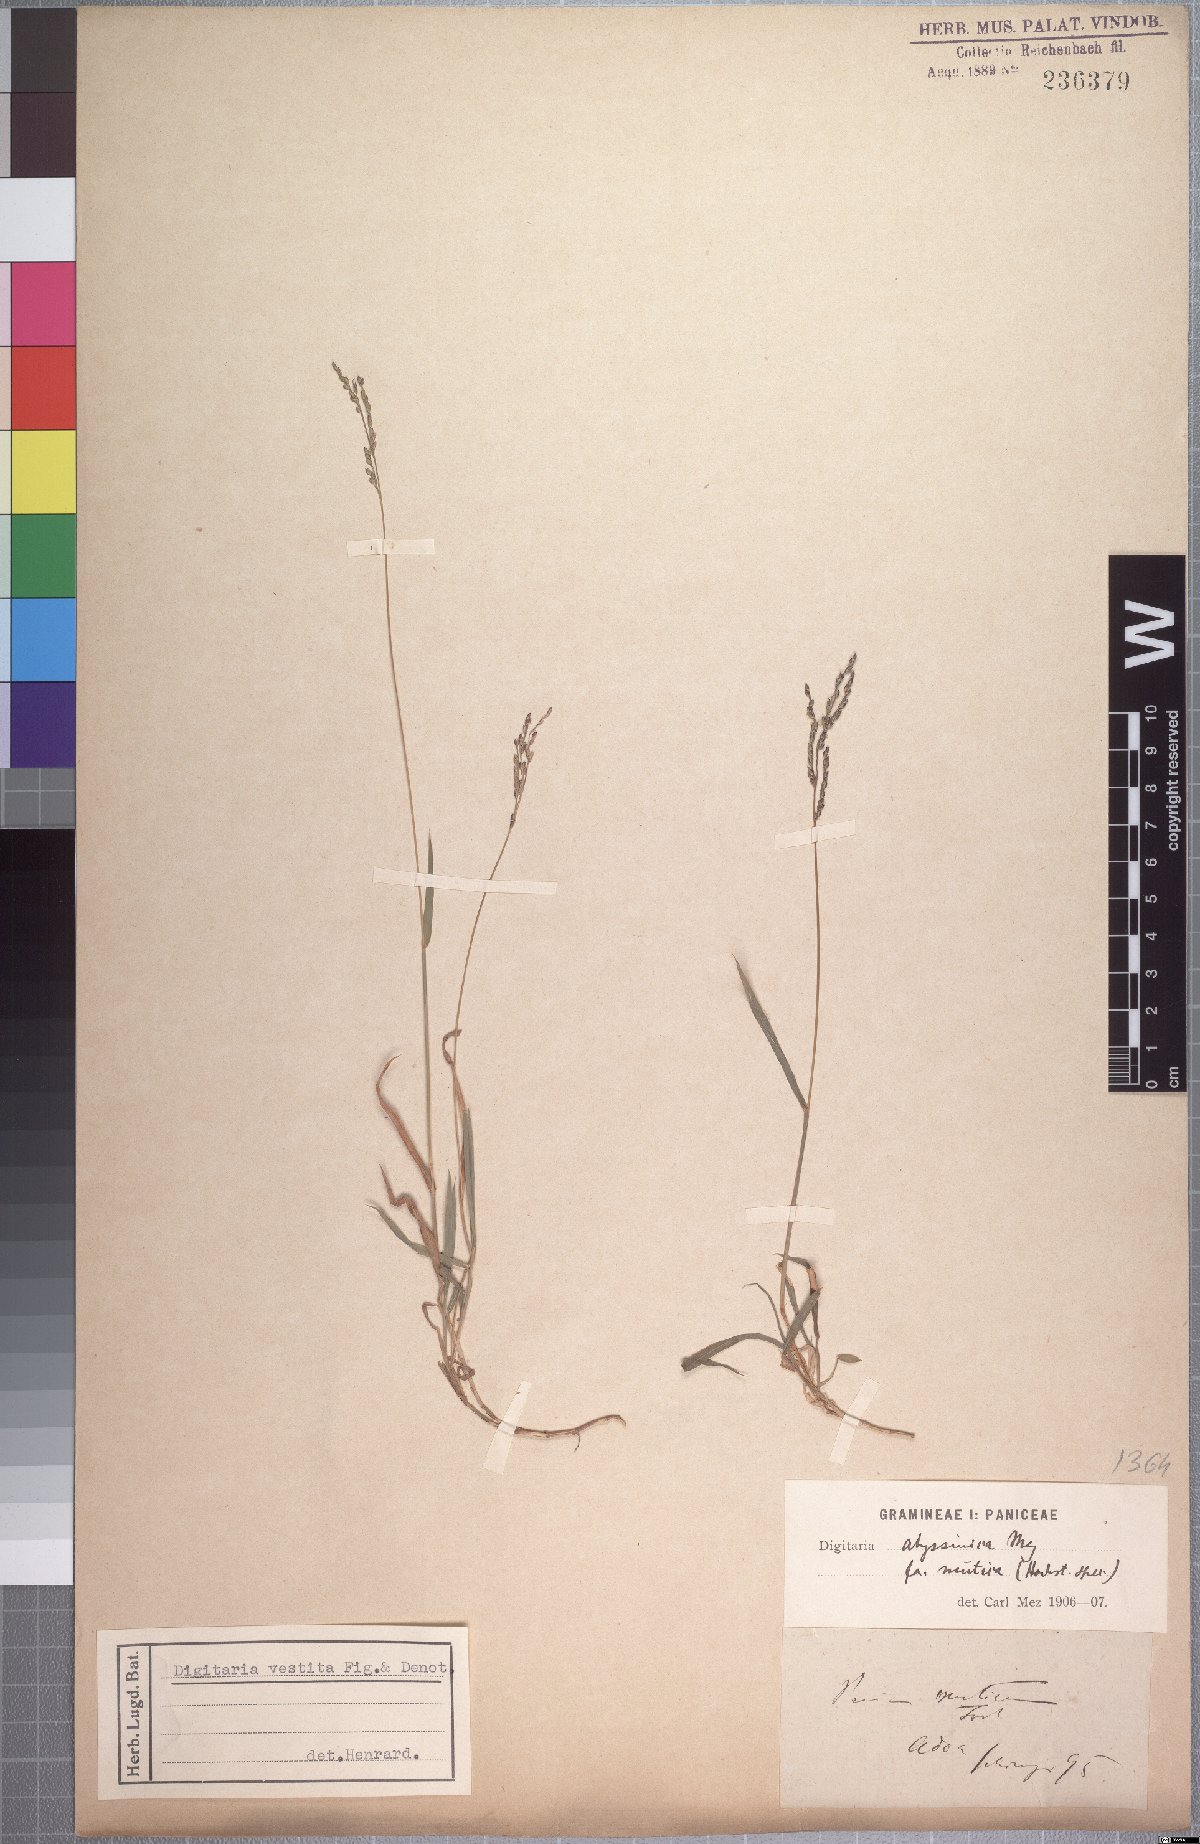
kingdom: Plantae
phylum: Tracheophyta
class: Liliopsida
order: Poales
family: Poaceae
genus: Digitaria
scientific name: Digitaria abyssinica
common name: African couchgrass
